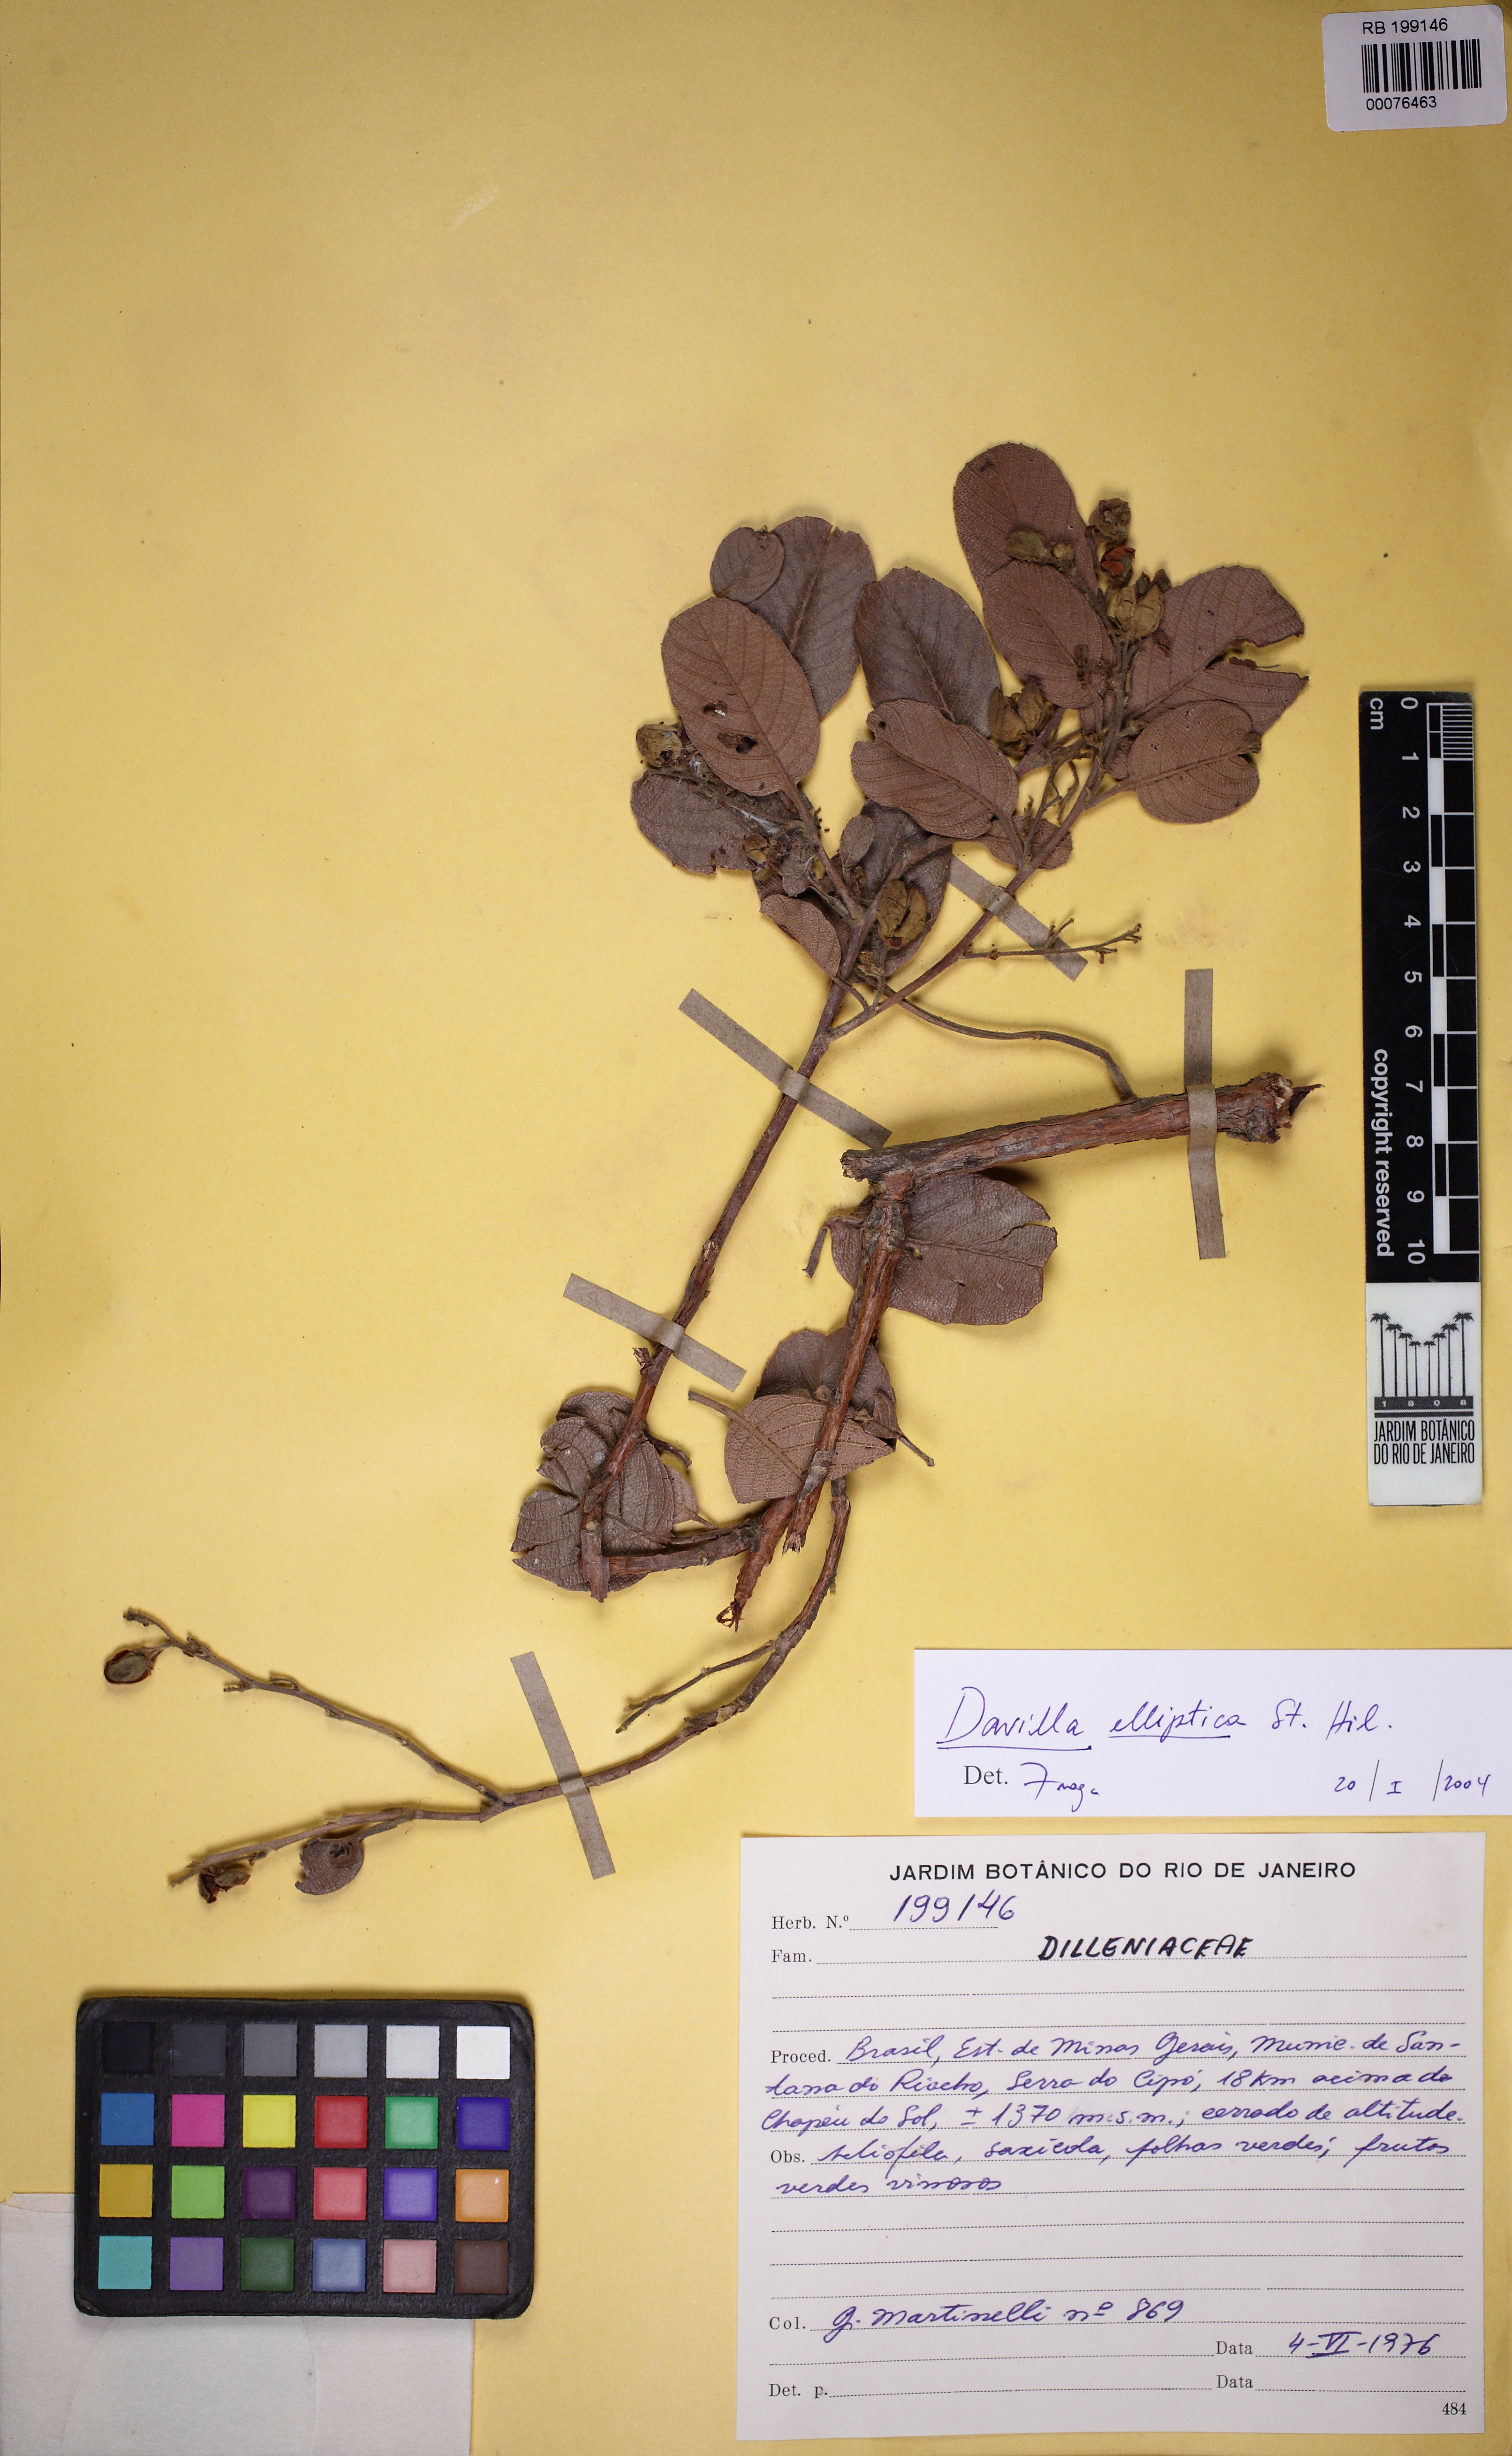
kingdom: Plantae
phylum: Tracheophyta
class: Magnoliopsida
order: Dilleniales
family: Dilleniaceae
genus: Davilla
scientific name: Davilla elliptica
